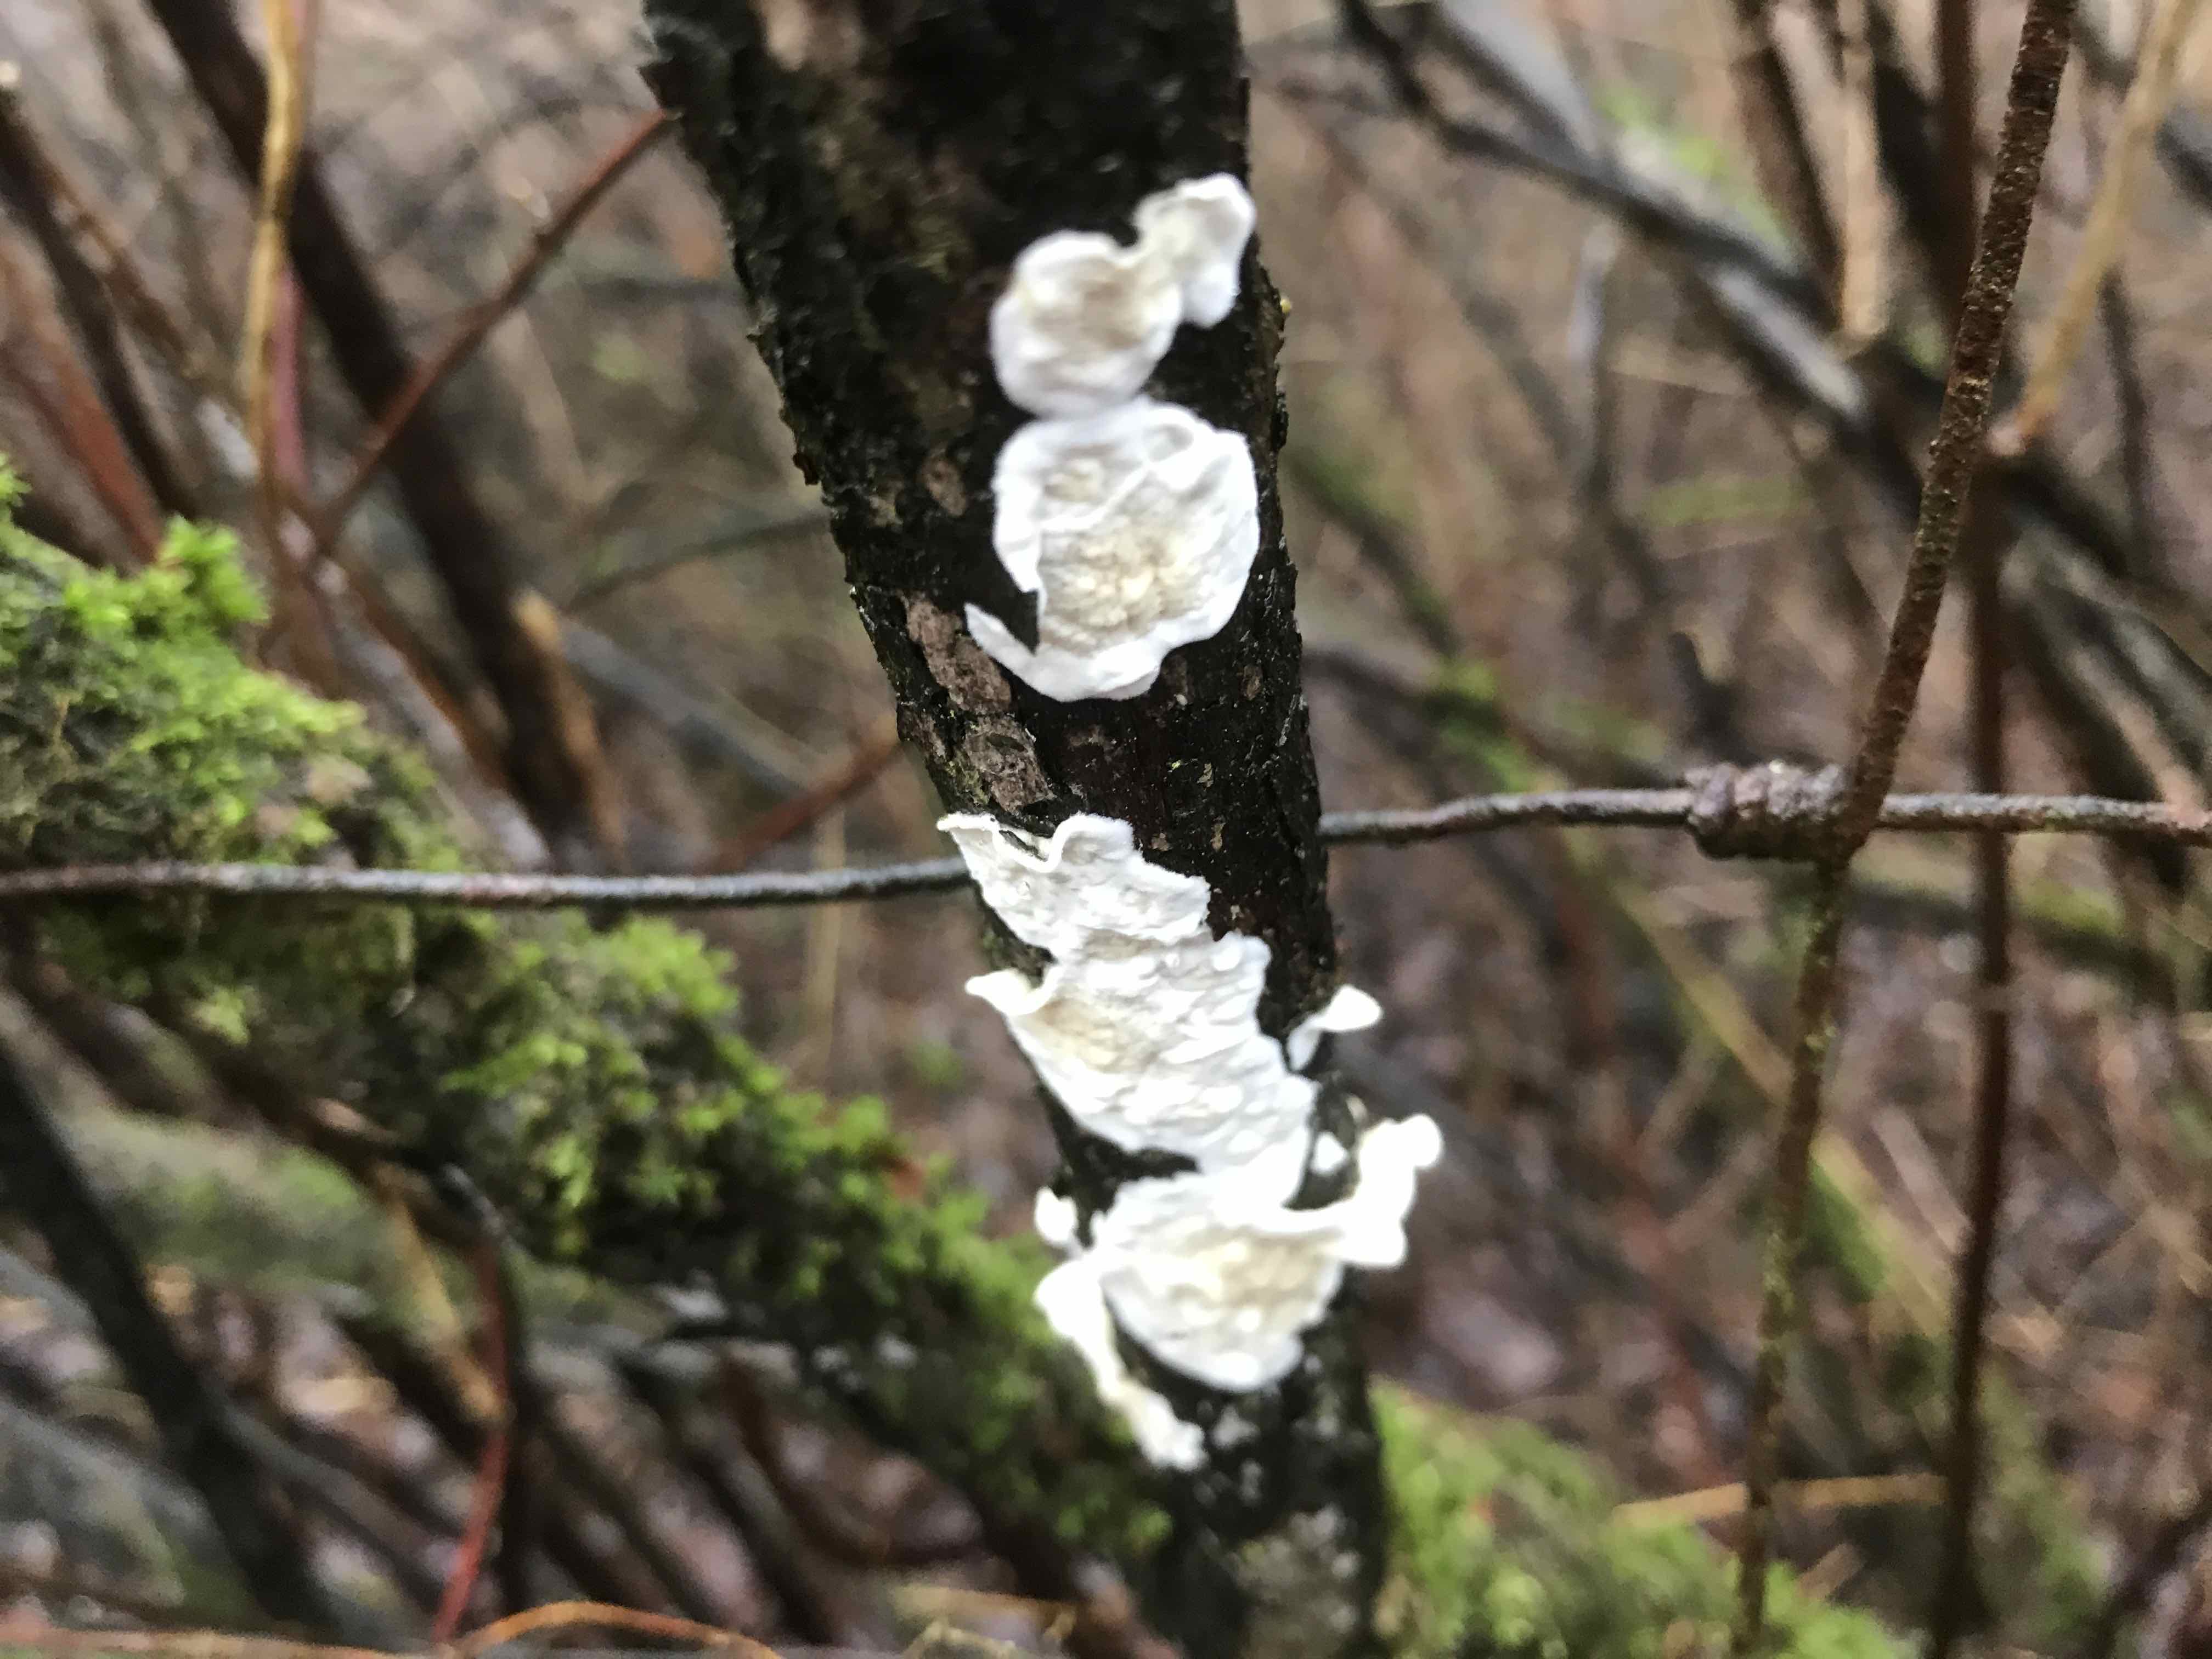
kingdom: Fungi
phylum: Basidiomycota
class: Agaricomycetes
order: Polyporales
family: Irpicaceae
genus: Byssomerulius
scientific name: Byssomerulius corium
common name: læder-åresvamp
